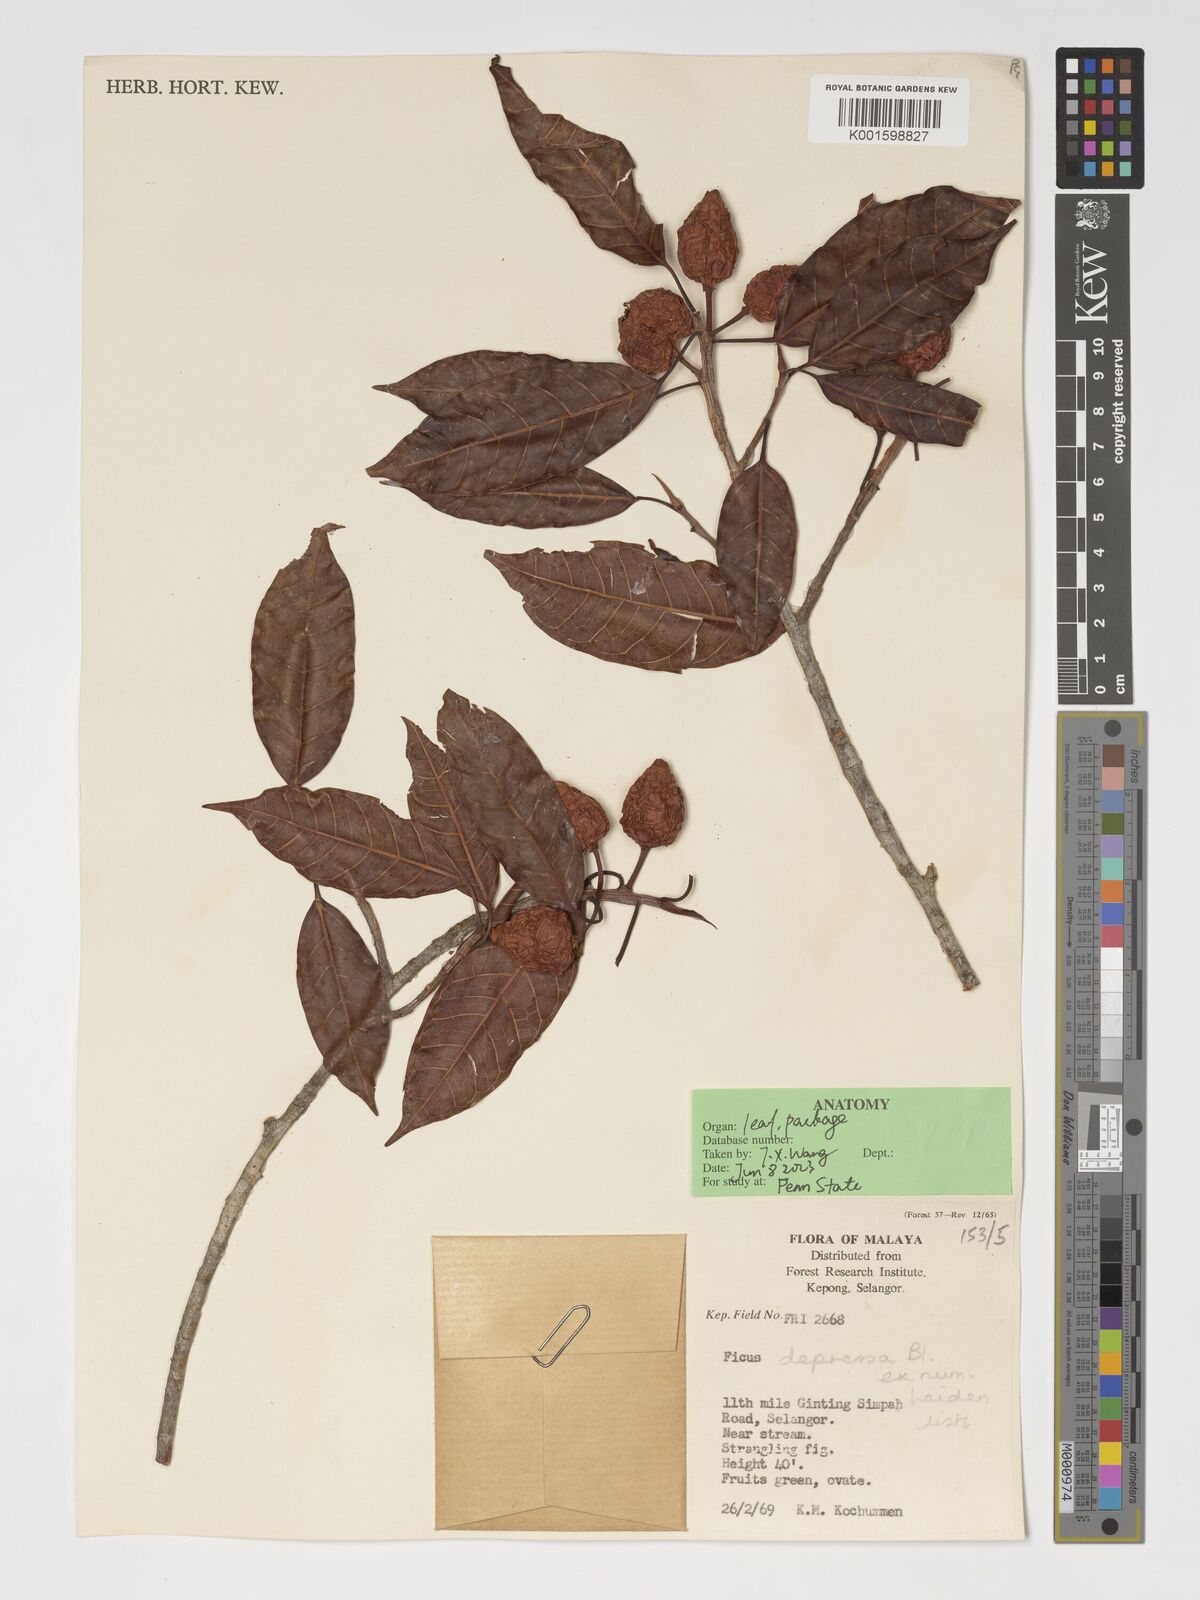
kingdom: Plantae
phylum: Tracheophyta
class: Magnoliopsida
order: Rosales
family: Moraceae
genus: Ficus
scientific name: Ficus depressa
